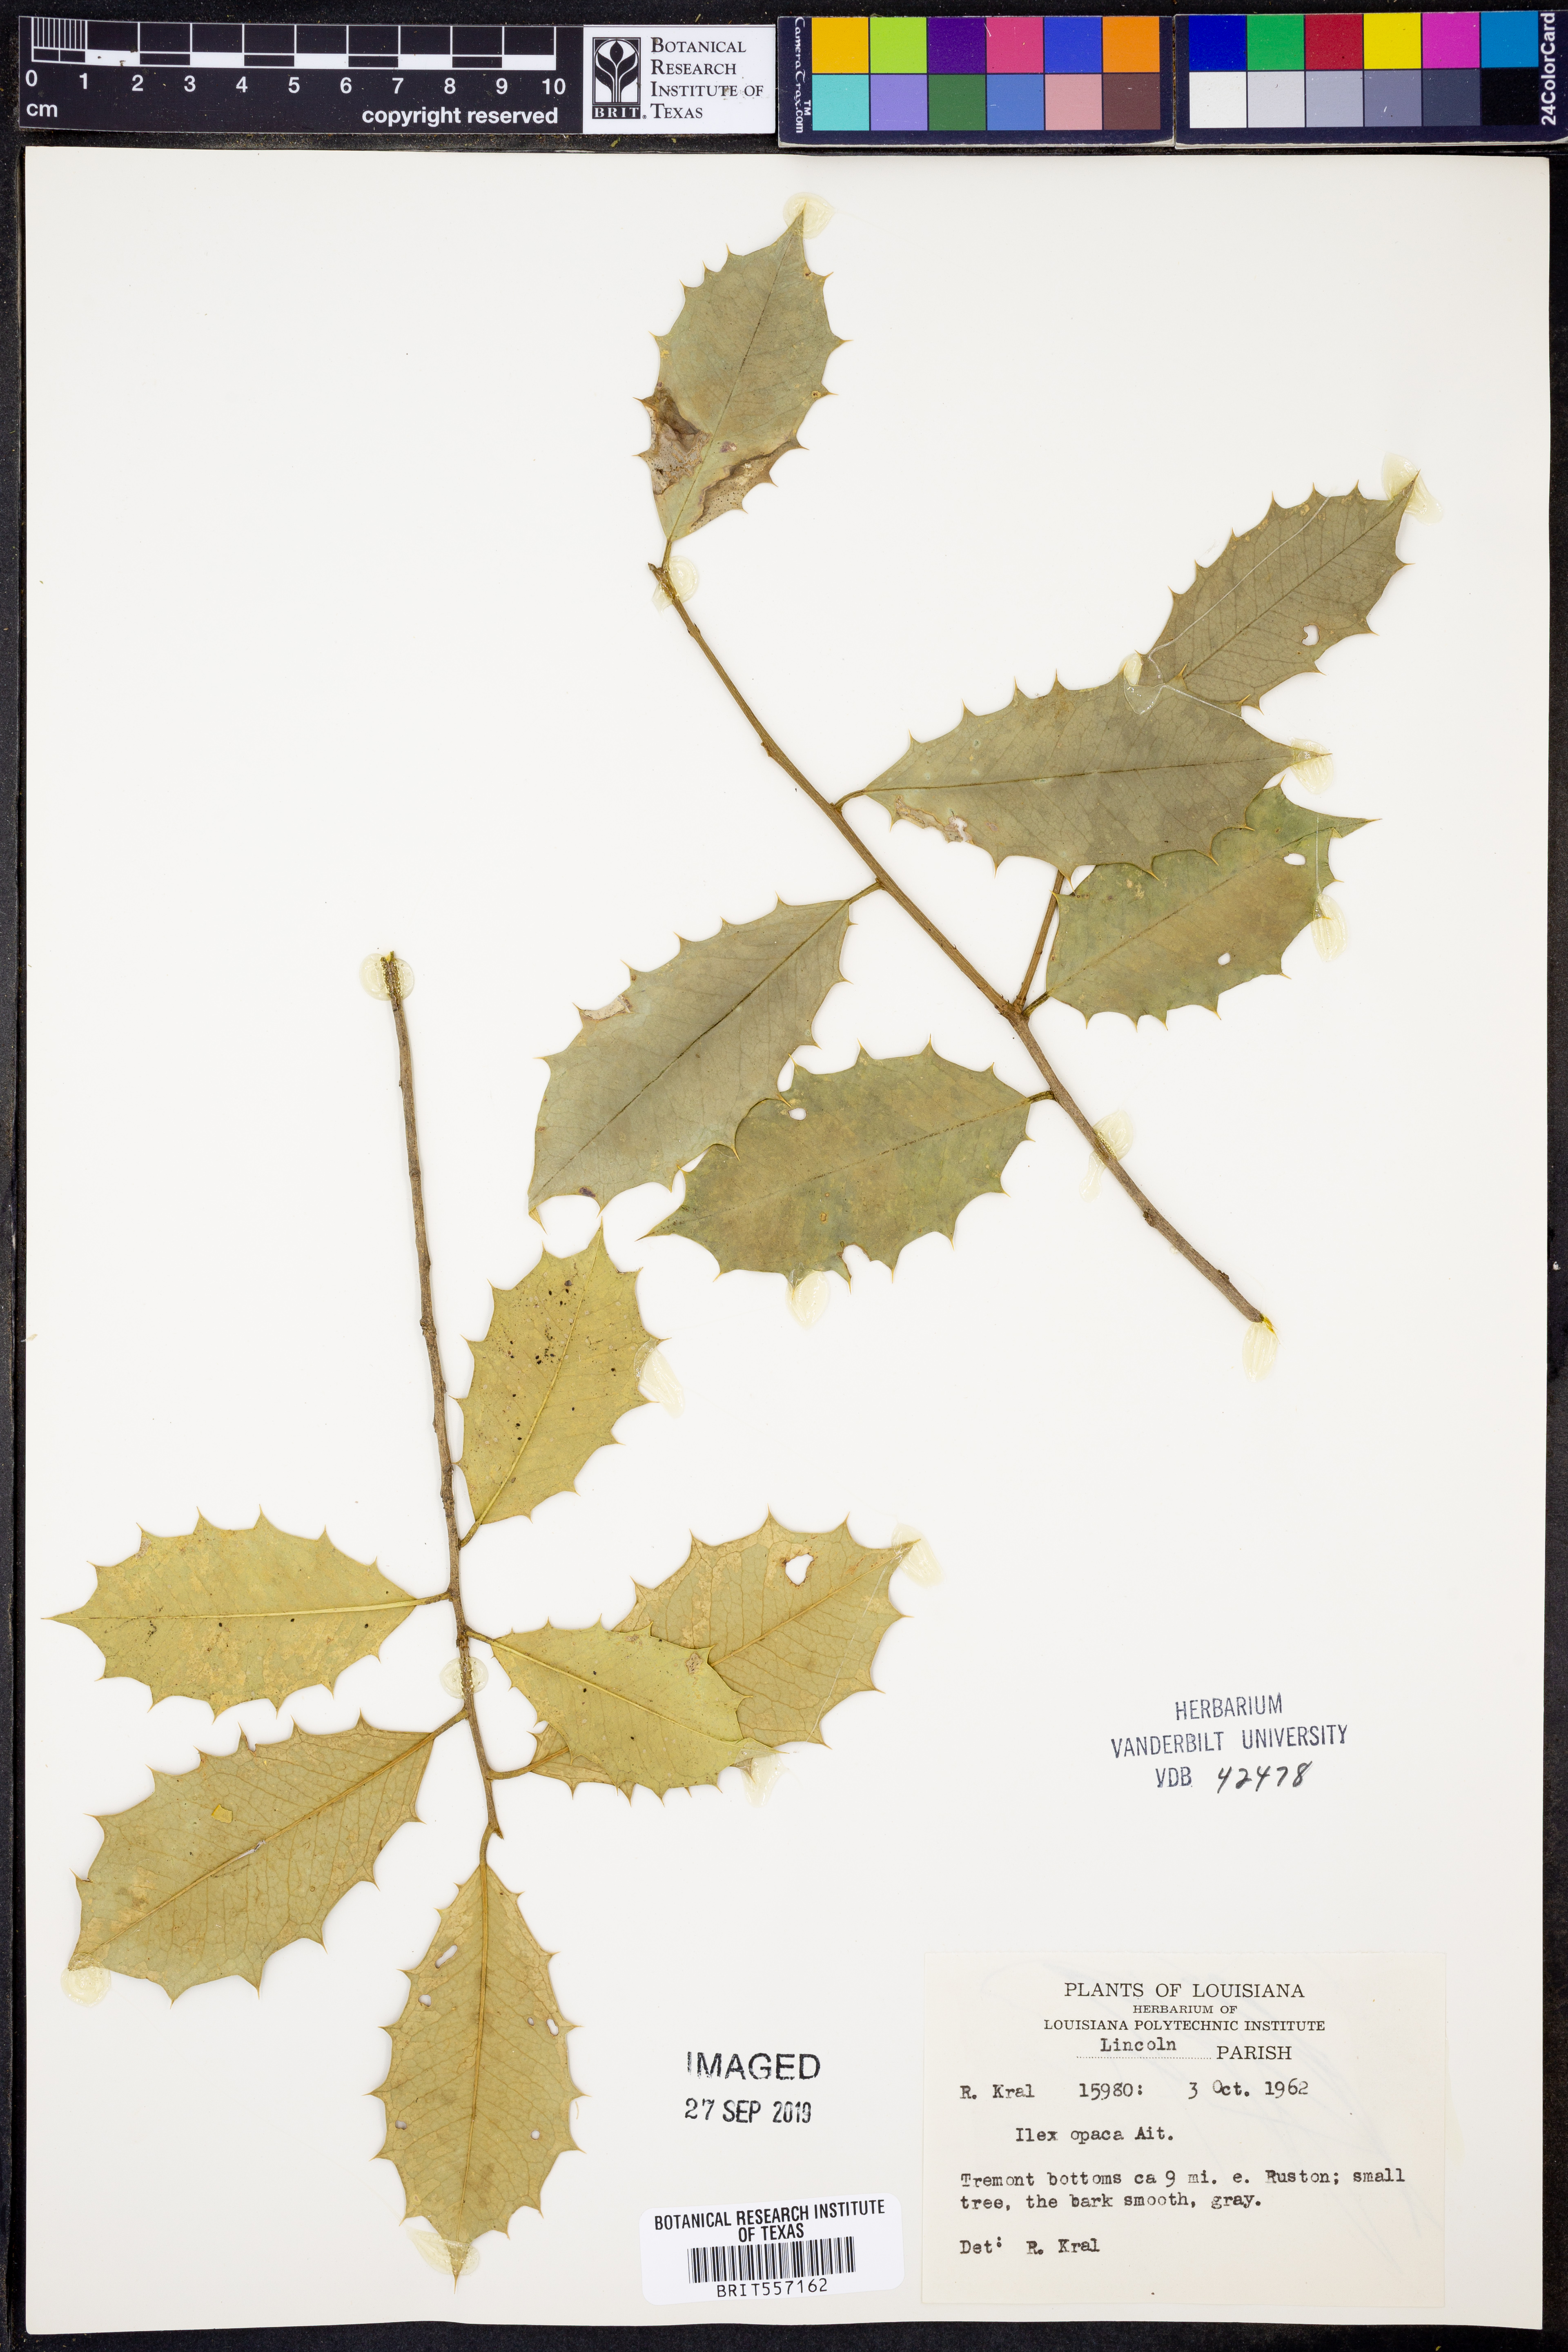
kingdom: Plantae
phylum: Tracheophyta
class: Magnoliopsida
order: Aquifoliales
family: Aquifoliaceae
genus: Ilex
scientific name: Ilex opaca
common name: American holly
